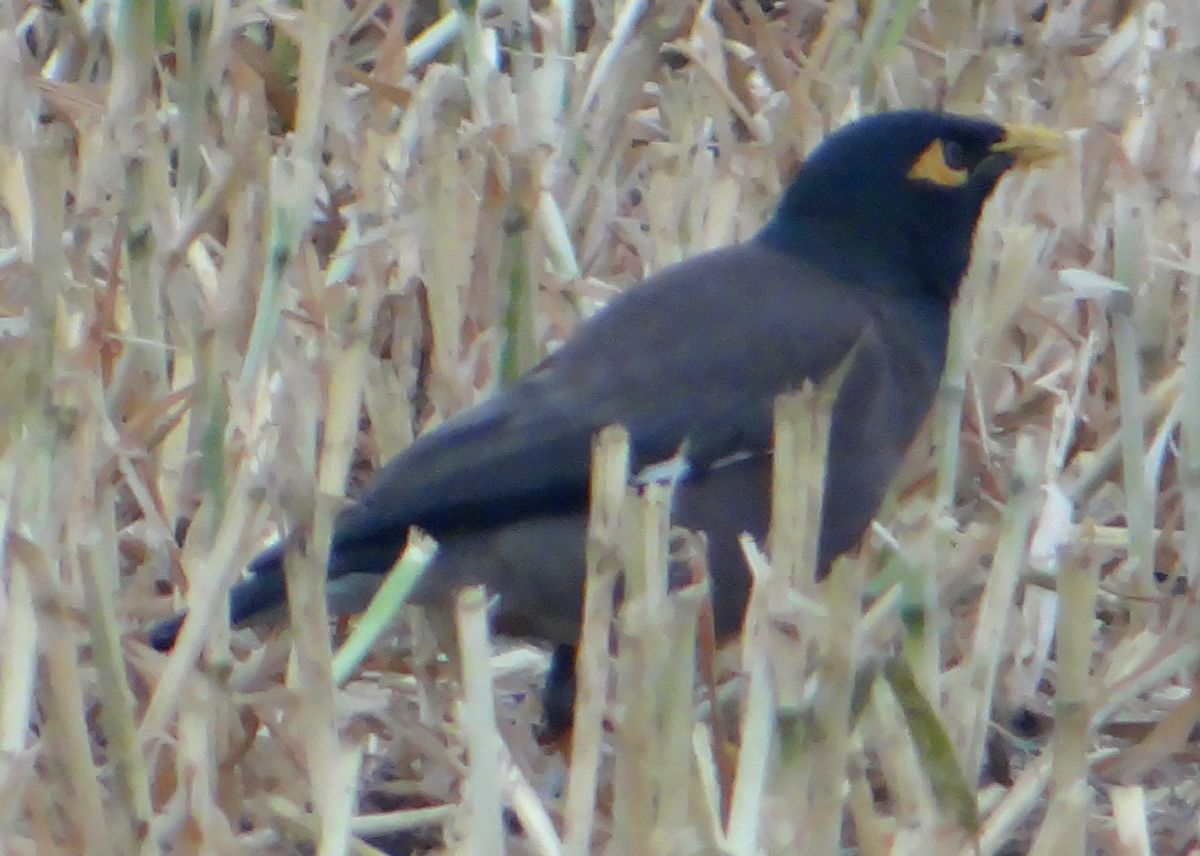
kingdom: Animalia
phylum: Chordata
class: Aves
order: Passeriformes
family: Sturnidae
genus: Acridotheres
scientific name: Acridotheres tristis
